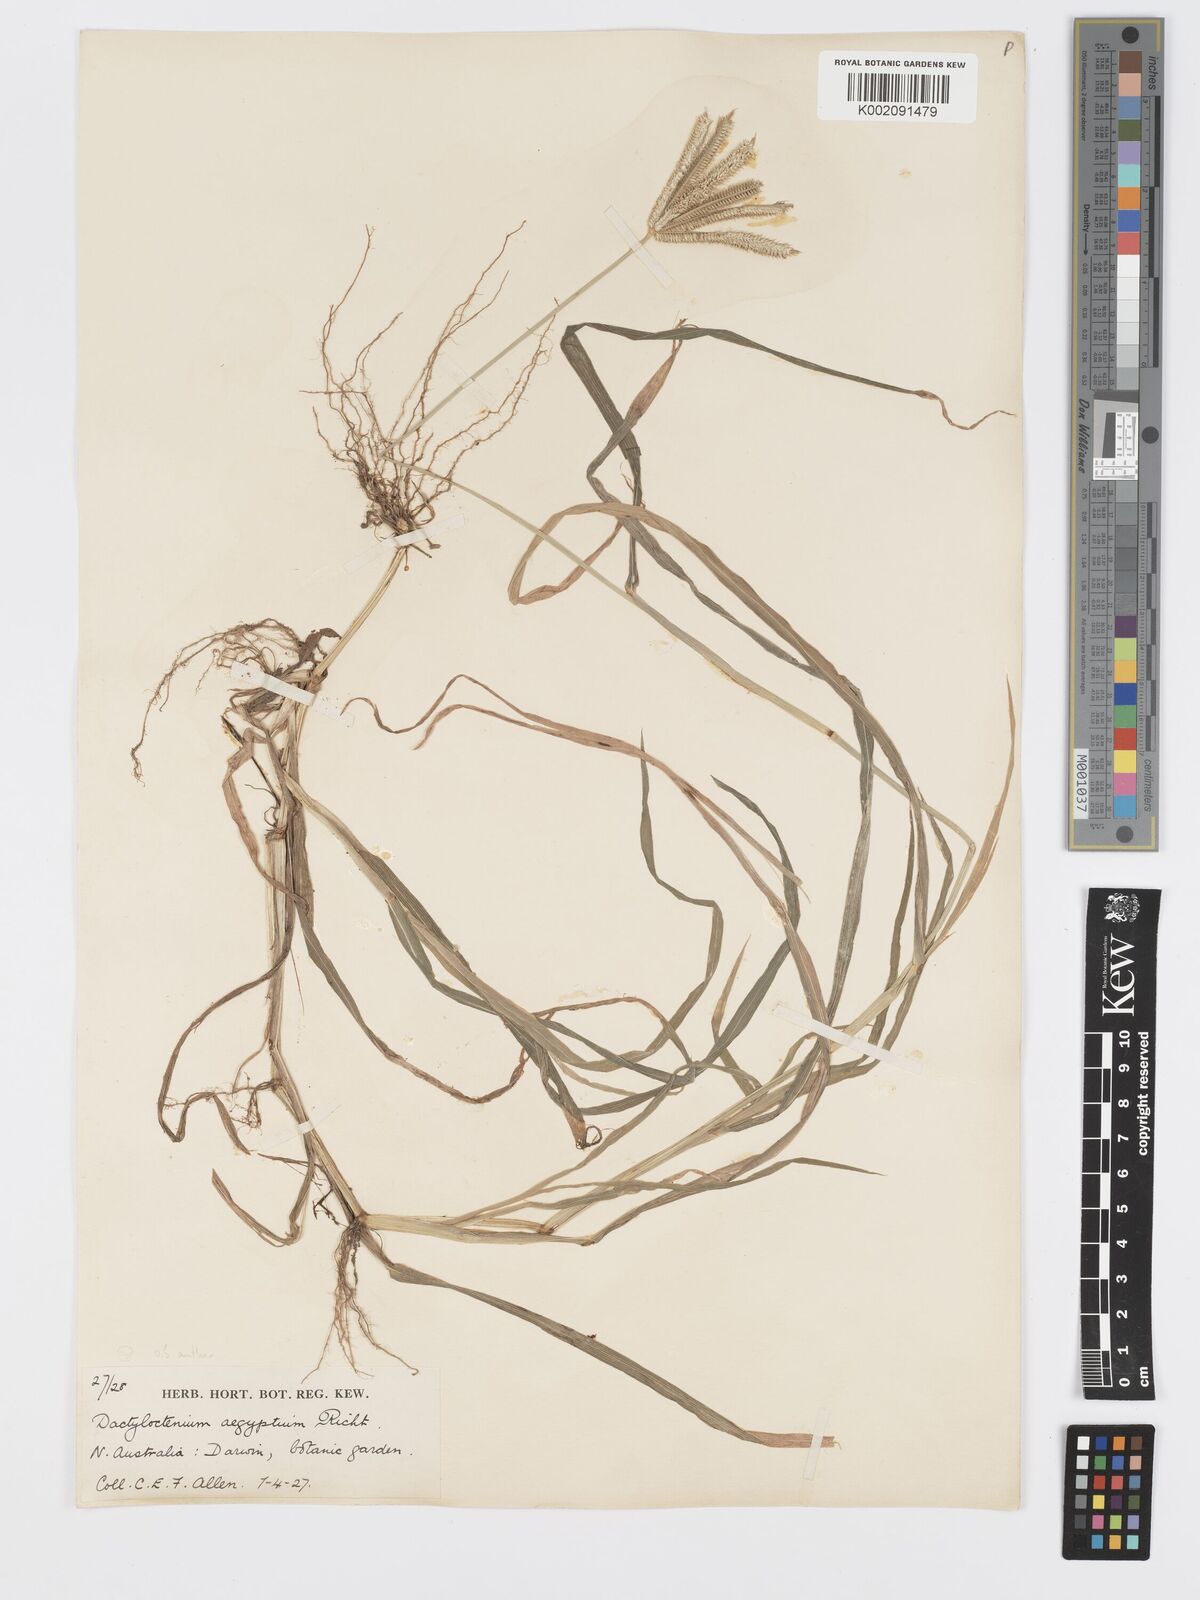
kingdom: Plantae
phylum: Tracheophyta
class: Liliopsida
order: Poales
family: Poaceae
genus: Dactyloctenium
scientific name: Dactyloctenium aegyptium
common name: Egyptian grass
